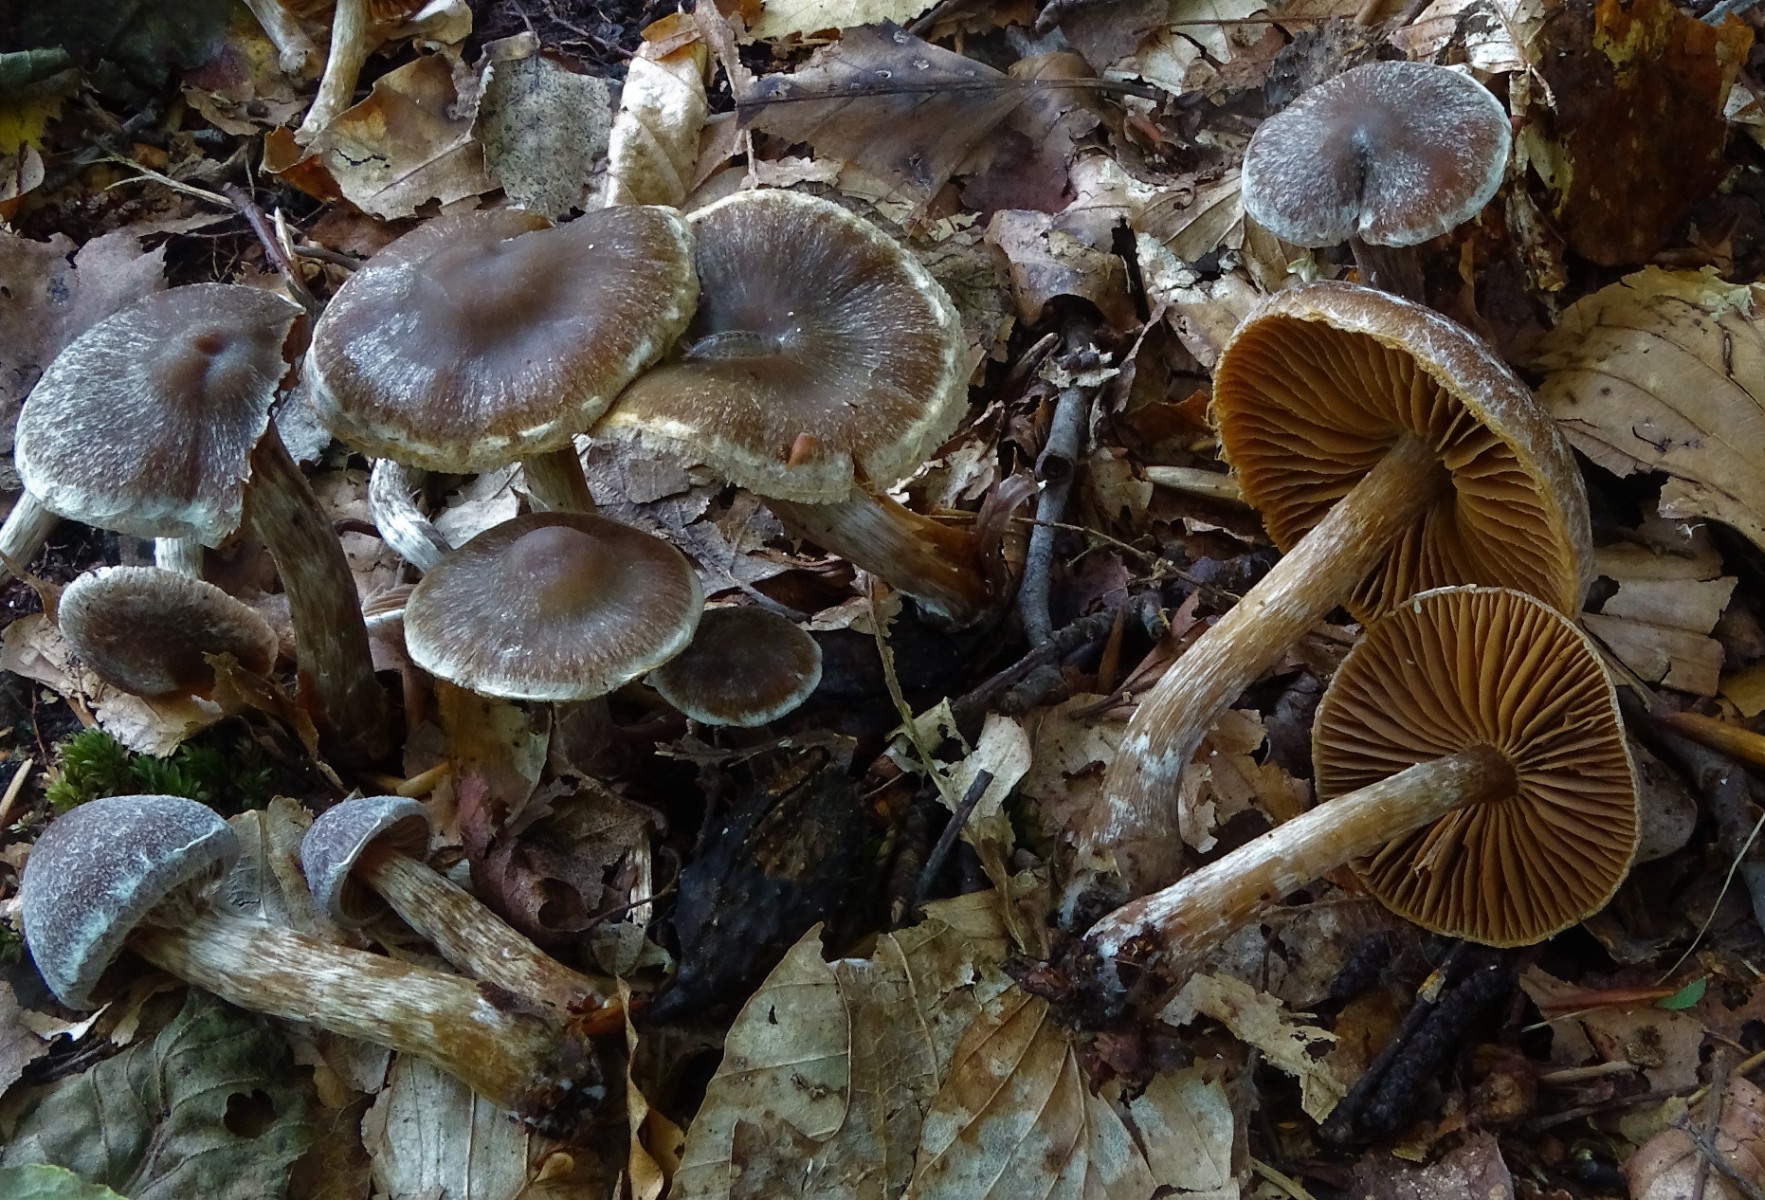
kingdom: Fungi
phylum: Basidiomycota
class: Agaricomycetes
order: Agaricales
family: Cortinariaceae
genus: Cortinarius
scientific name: Cortinarius umbrinolens
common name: mørk slørhat
